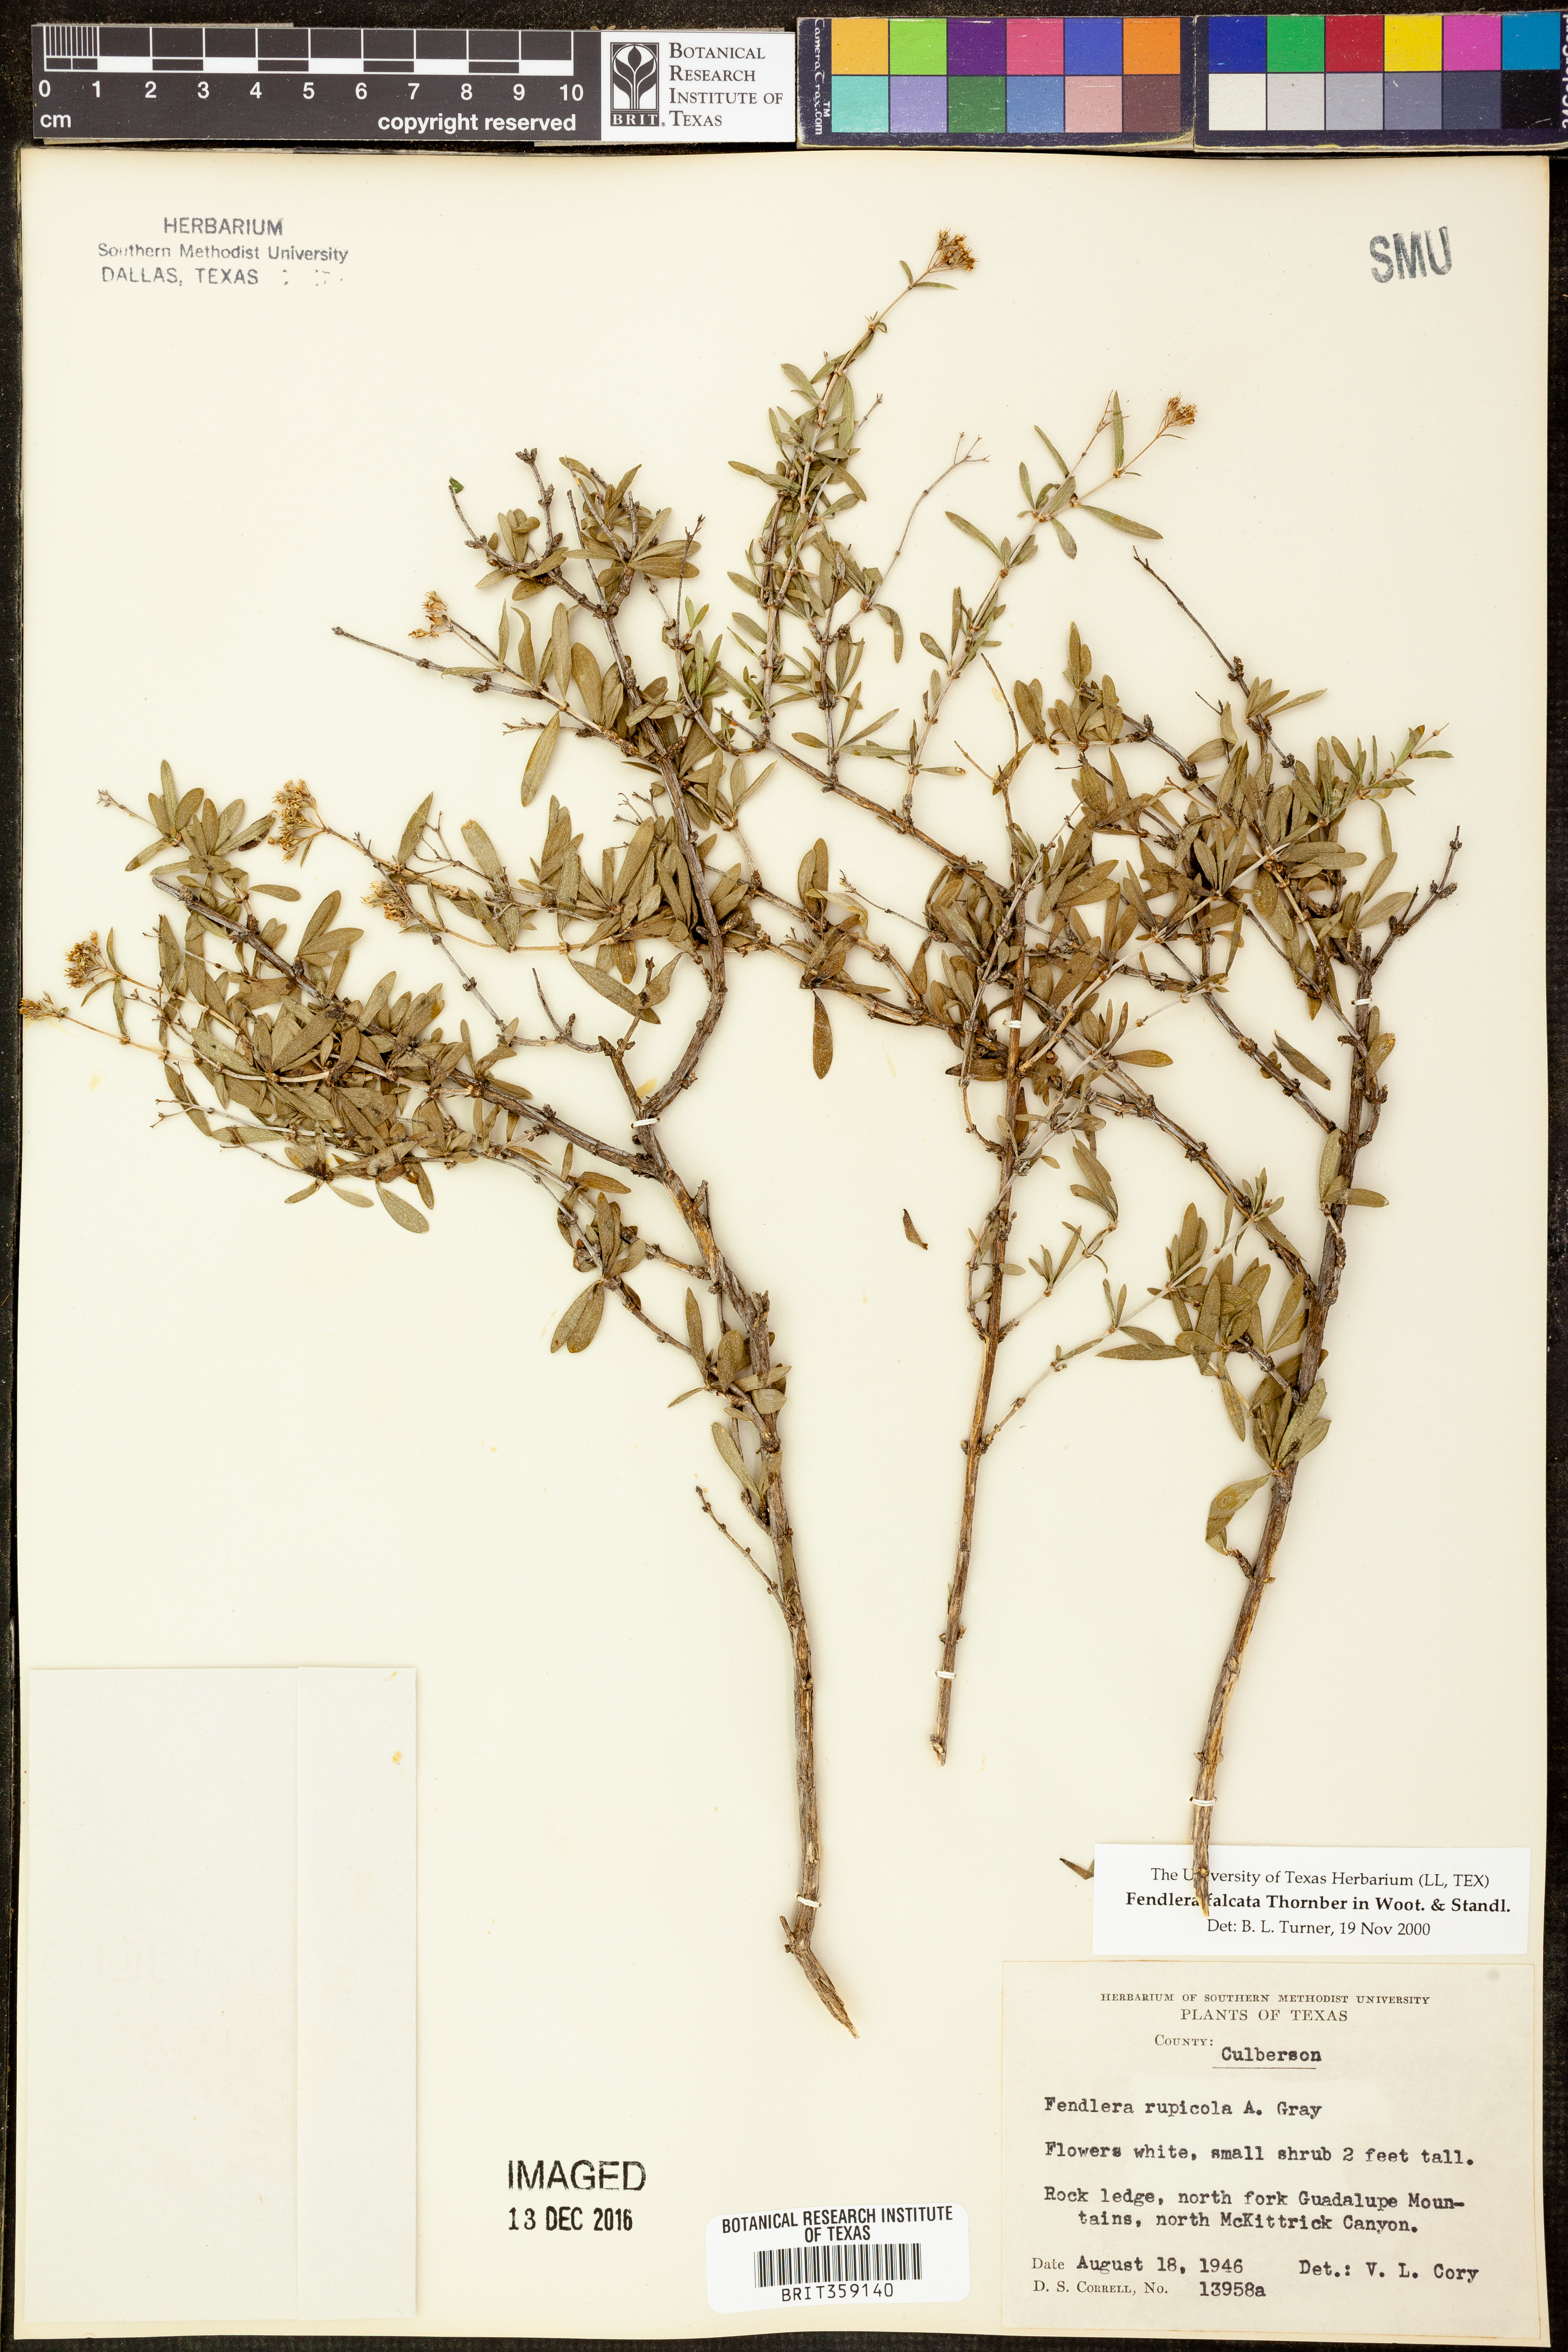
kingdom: Plantae
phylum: Tracheophyta
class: Magnoliopsida
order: Cornales
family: Hydrangeaceae
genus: Fendlera
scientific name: Fendlera rupicola
